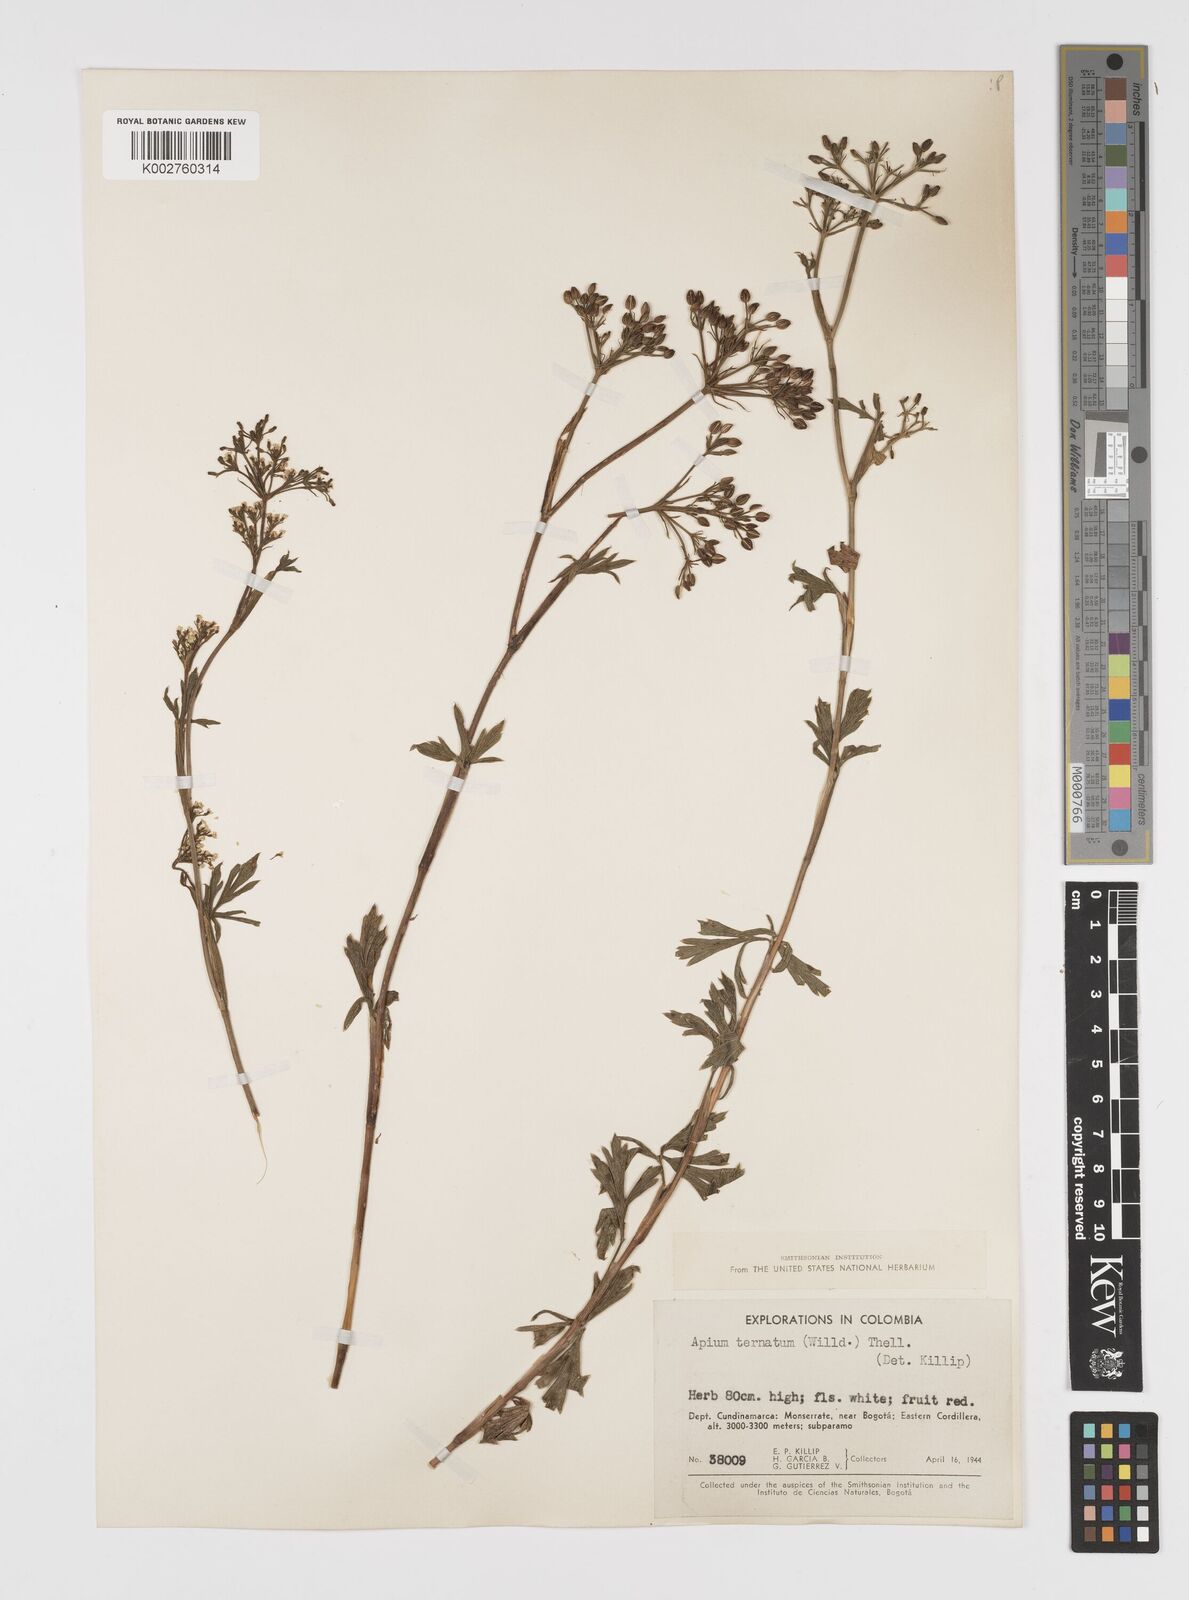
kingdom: Plantae
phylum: Tracheophyta
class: Magnoliopsida
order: Apiales
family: Apiaceae
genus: Niphogeton
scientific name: Niphogeton ternata
